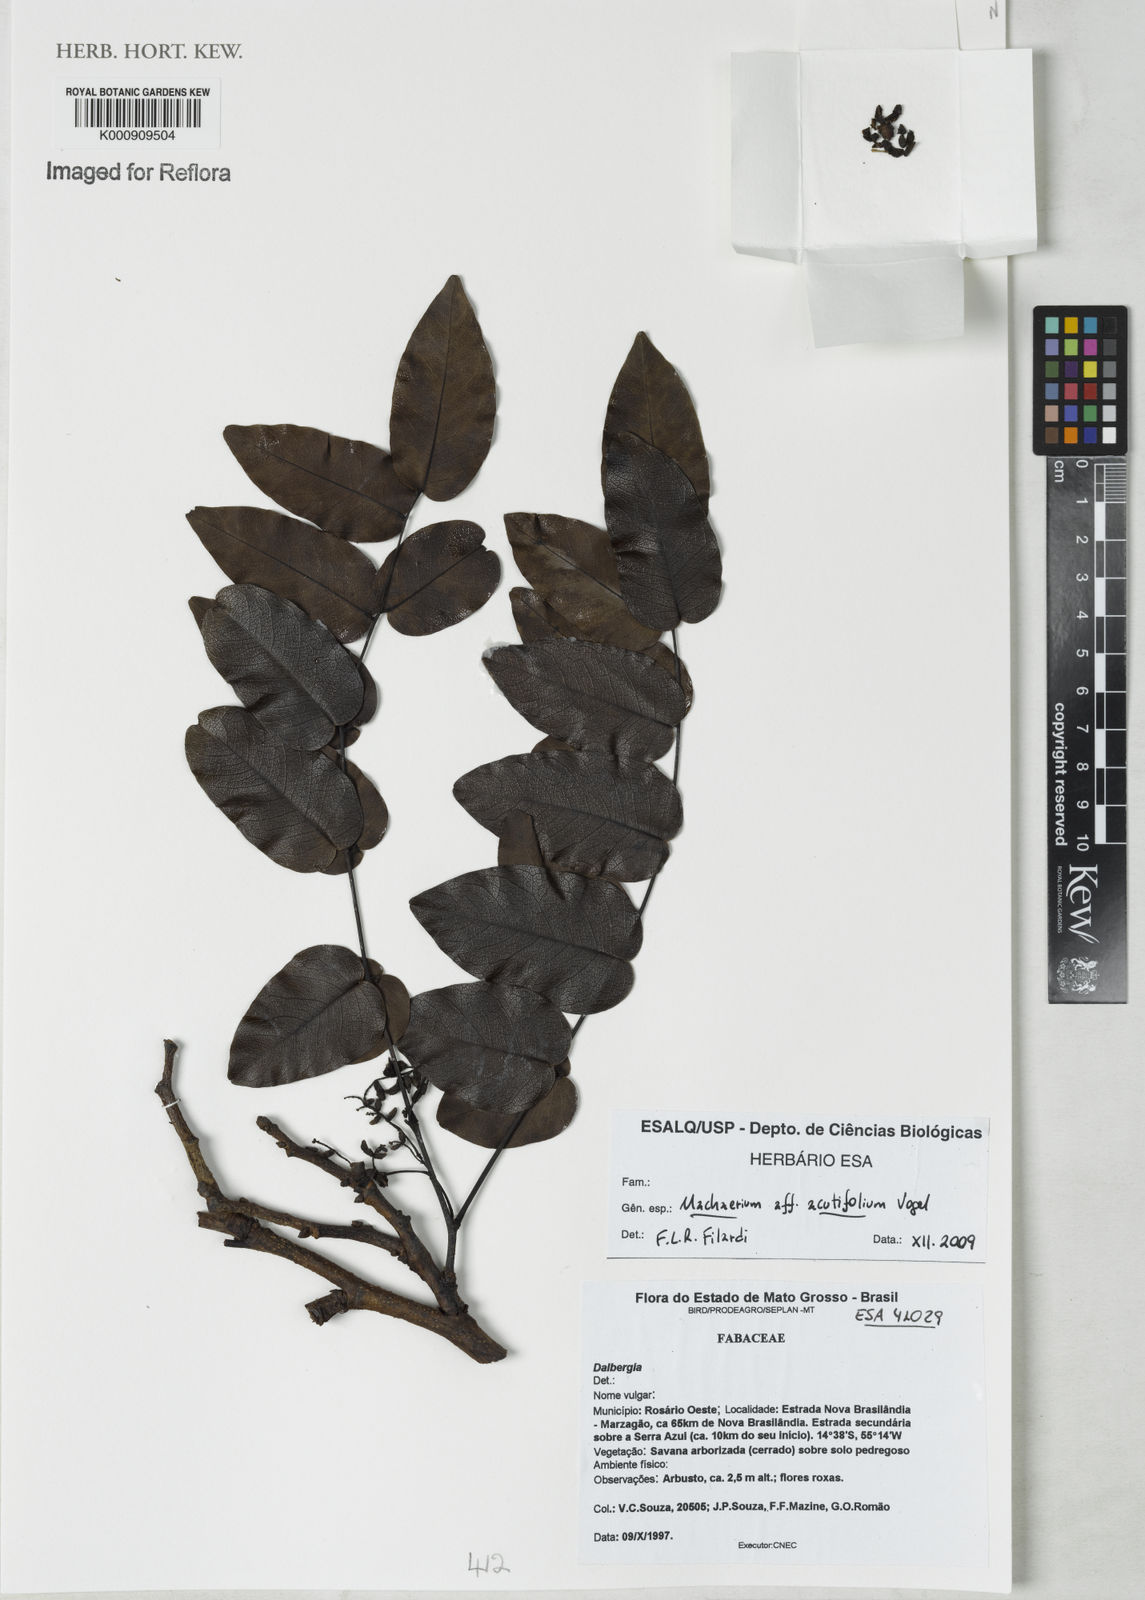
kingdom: Plantae
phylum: Tracheophyta
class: Magnoliopsida
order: Fabales
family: Fabaceae
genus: Machaerium
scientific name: Machaerium acutifolium
